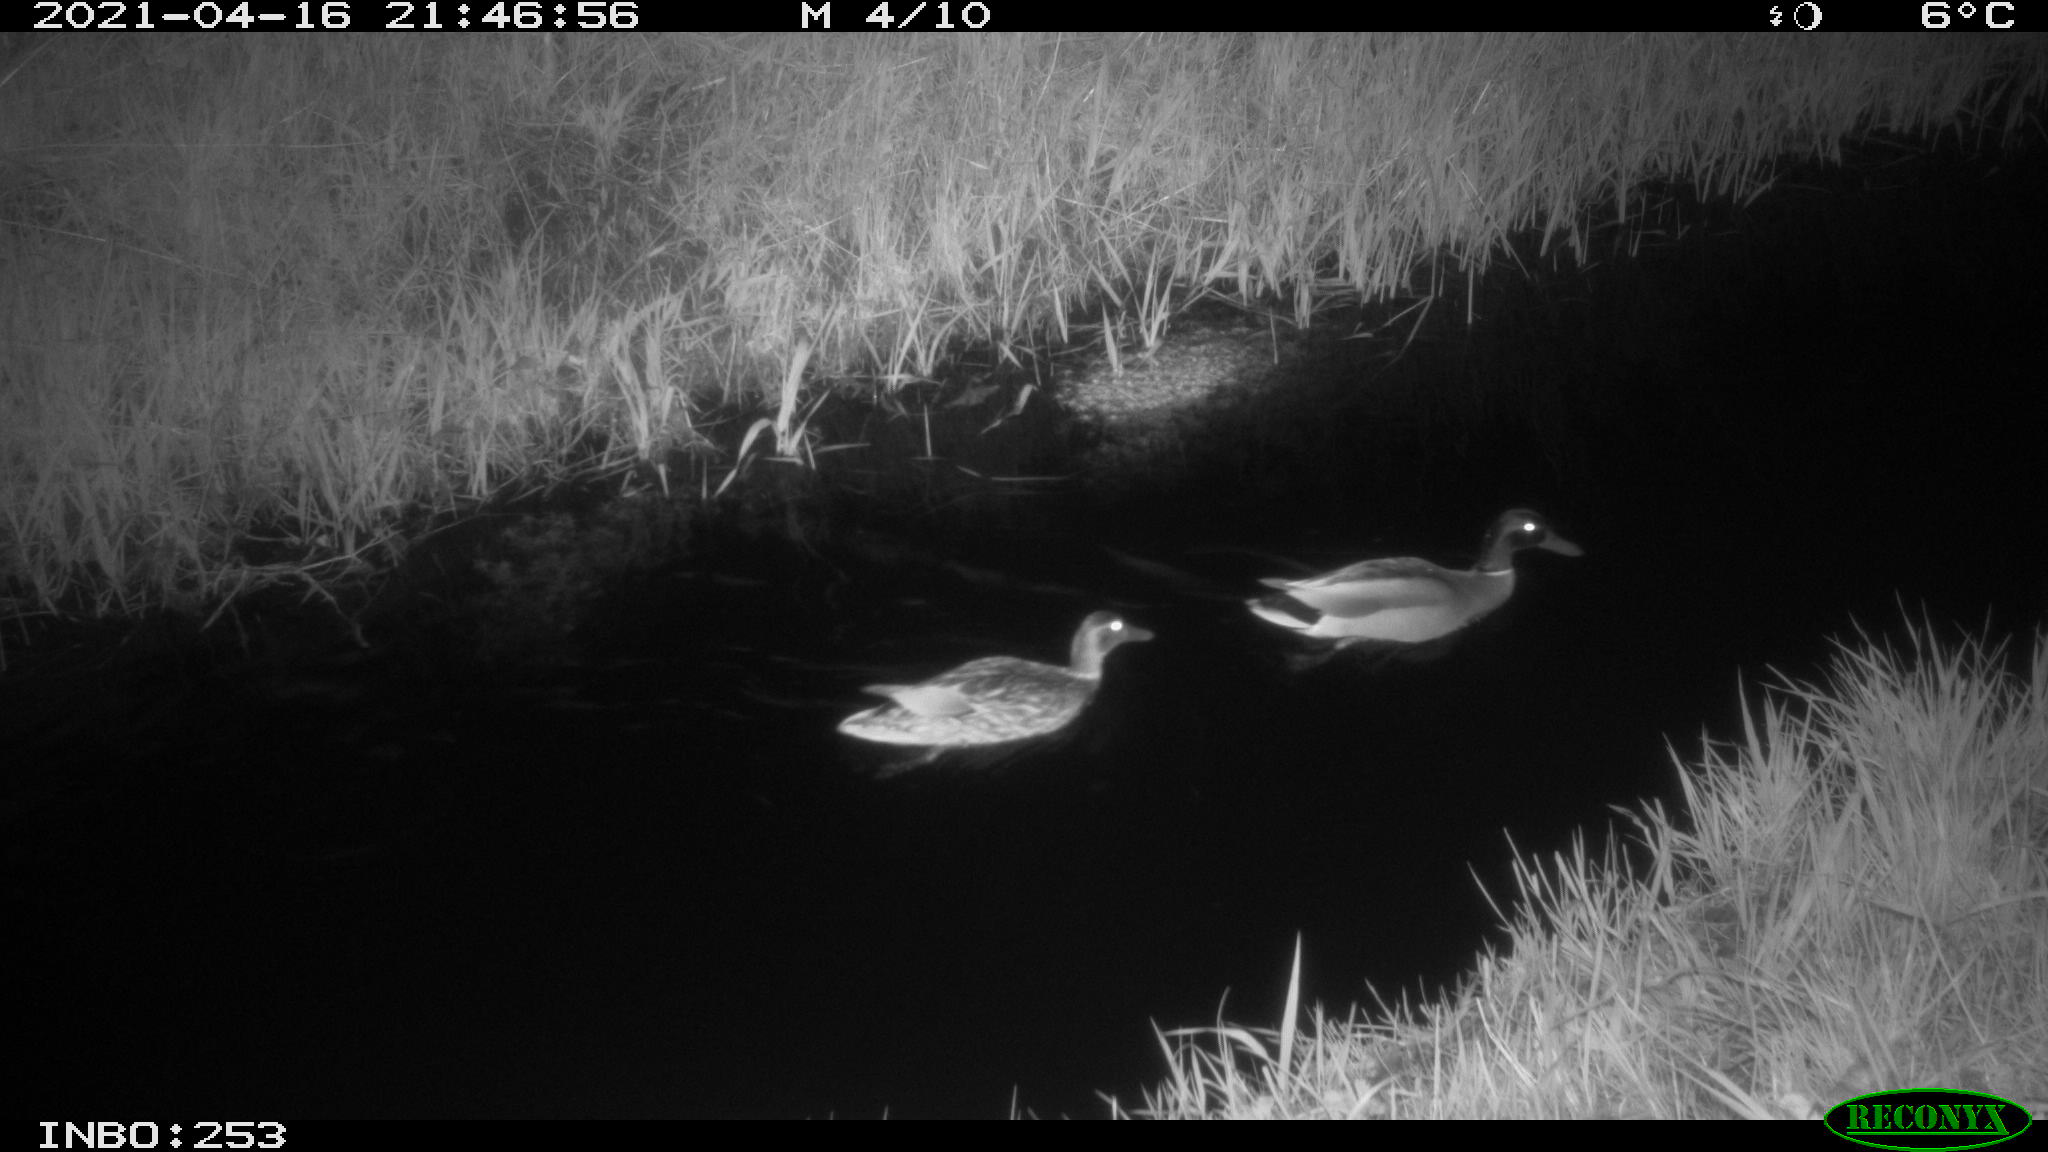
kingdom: Animalia
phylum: Chordata
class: Aves
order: Anseriformes
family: Anatidae
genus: Anas
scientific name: Anas platyrhynchos
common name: Mallard
